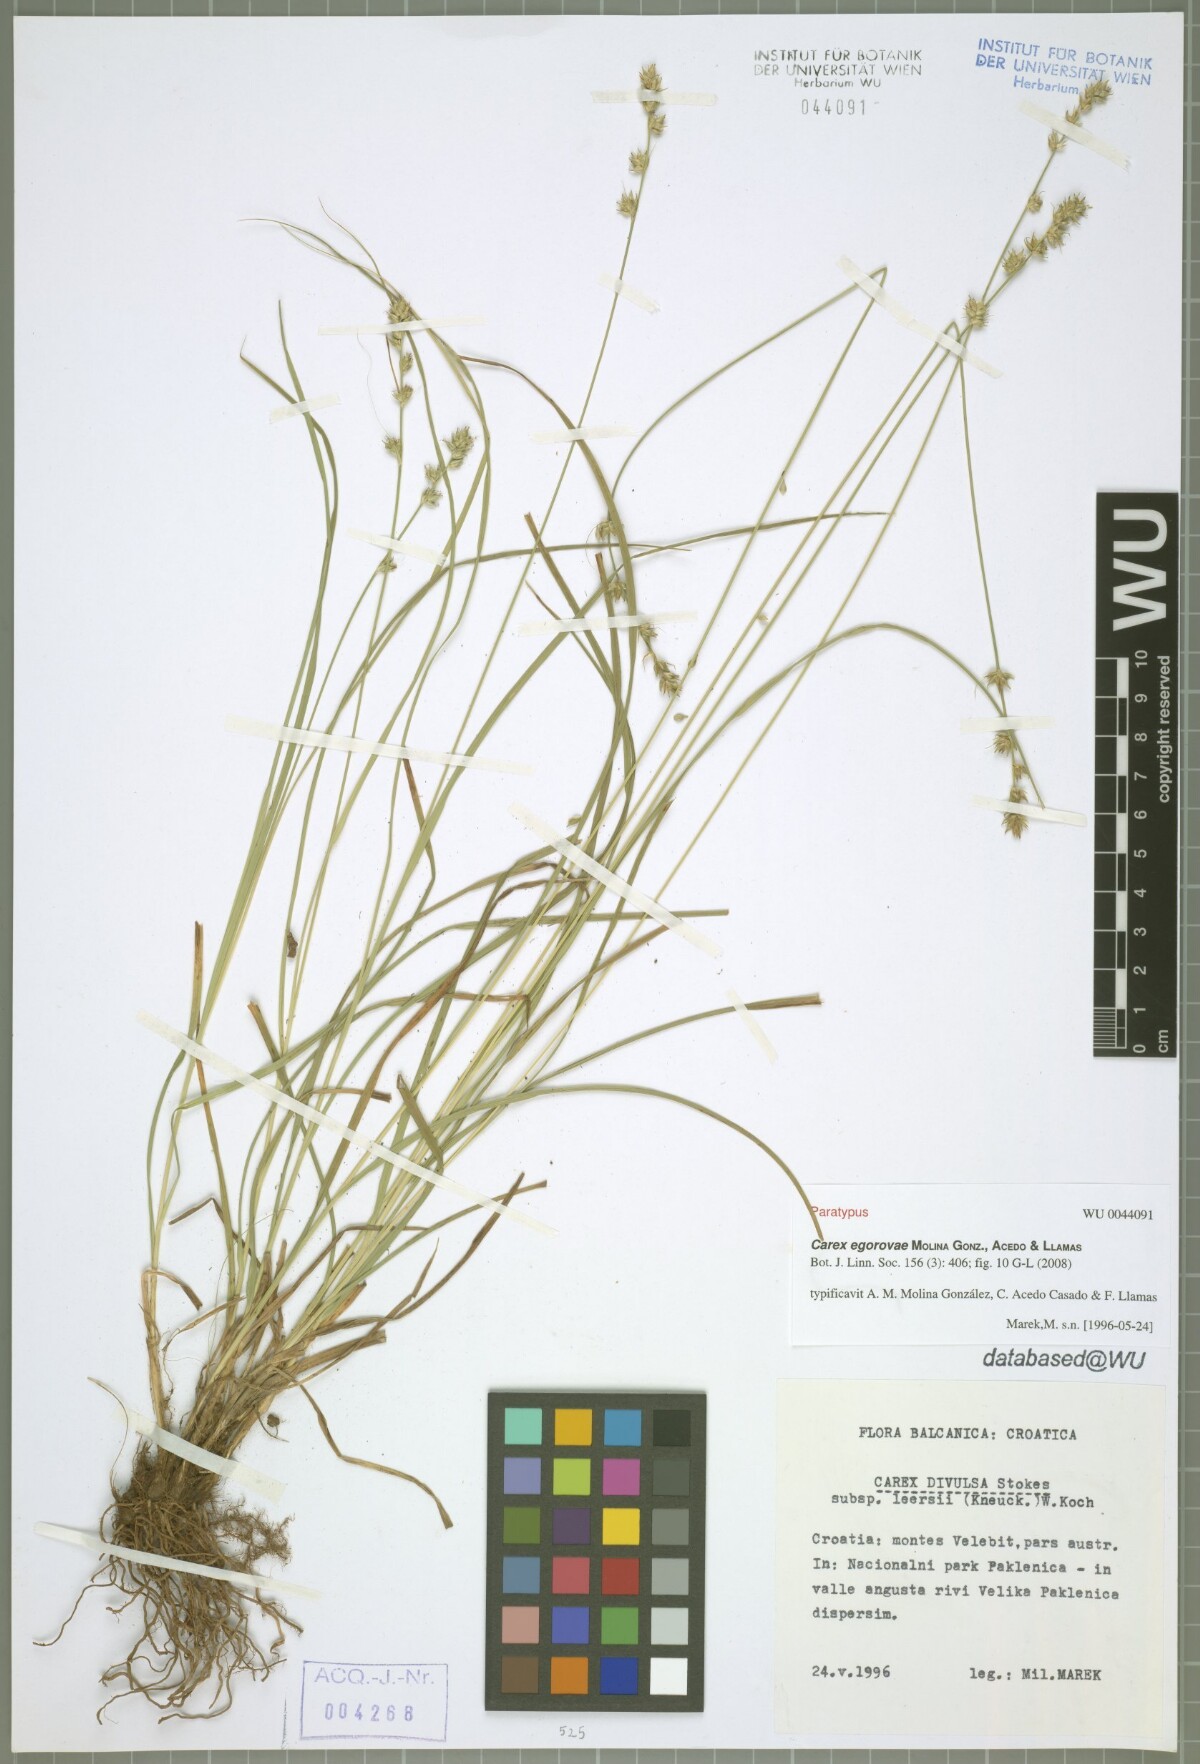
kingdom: Plantae
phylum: Tracheophyta
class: Liliopsida
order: Poales
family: Cyperaceae
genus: Carex
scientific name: Carex egorovae
